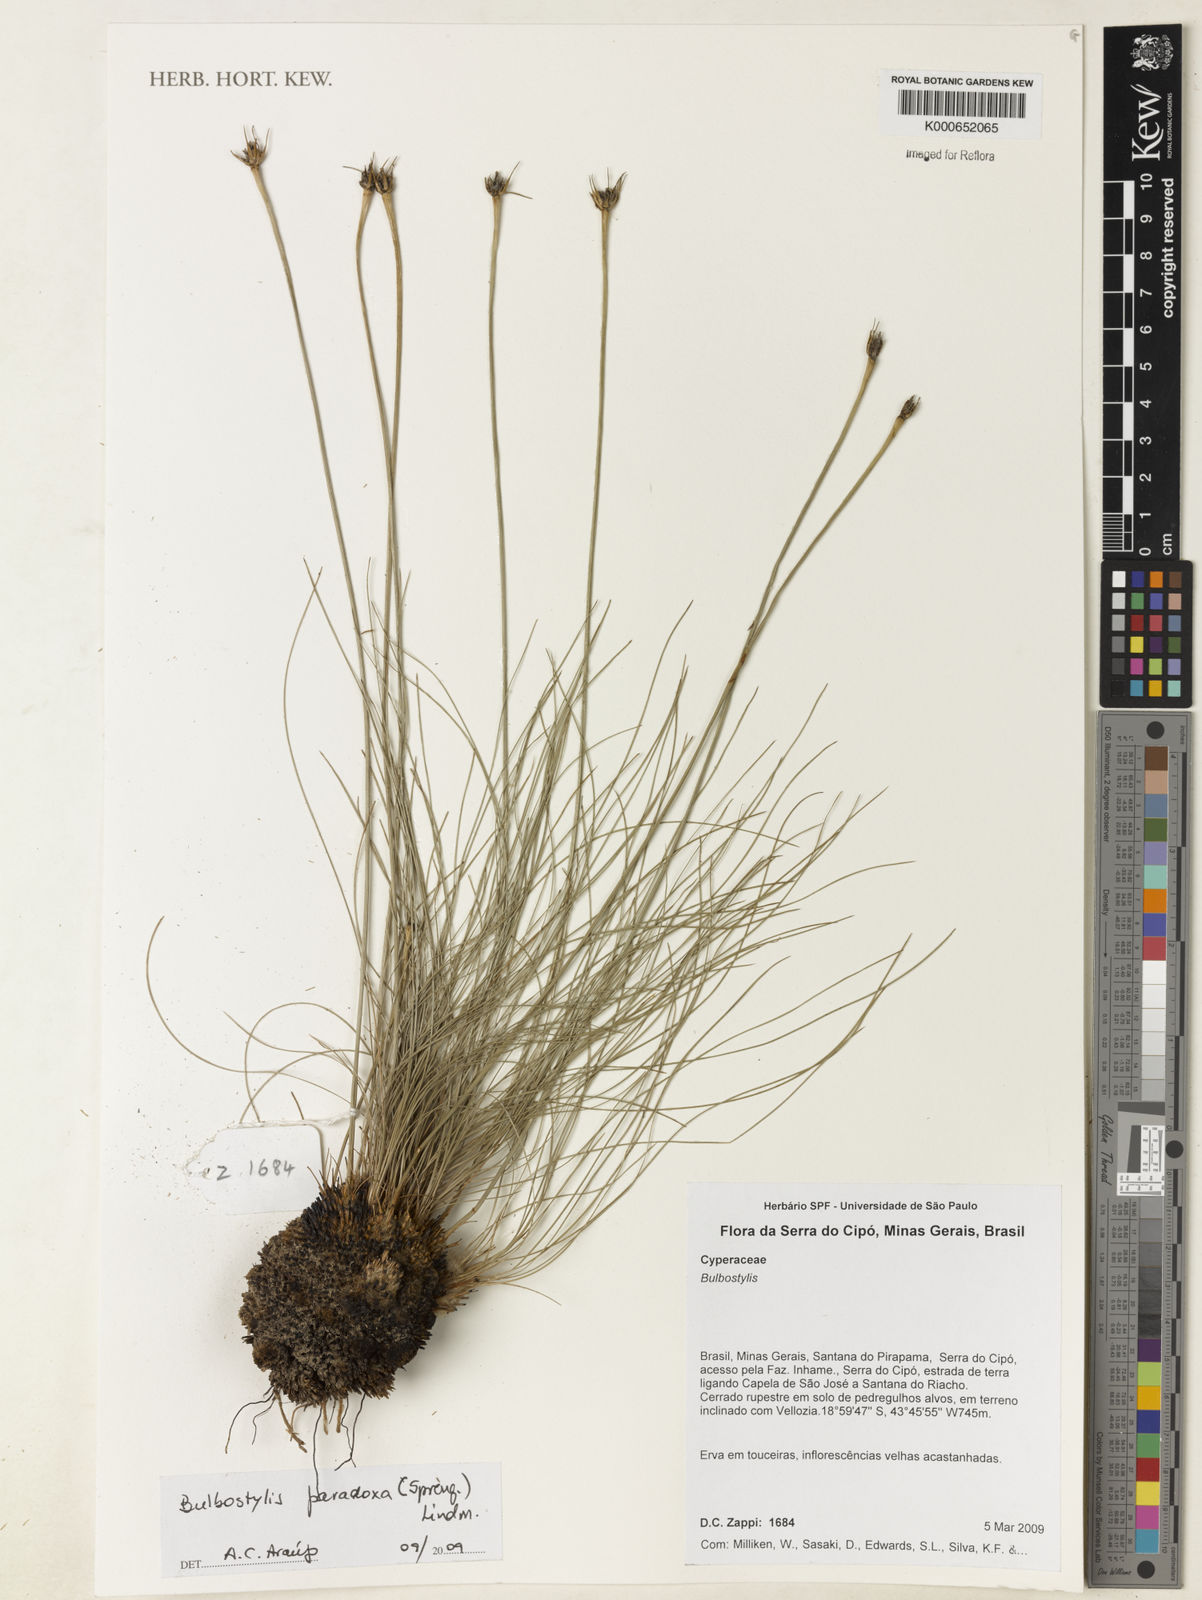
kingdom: Plantae
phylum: Tracheophyta
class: Liliopsida
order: Poales
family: Cyperaceae
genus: Bulbostylis
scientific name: Bulbostylis paradoxa
